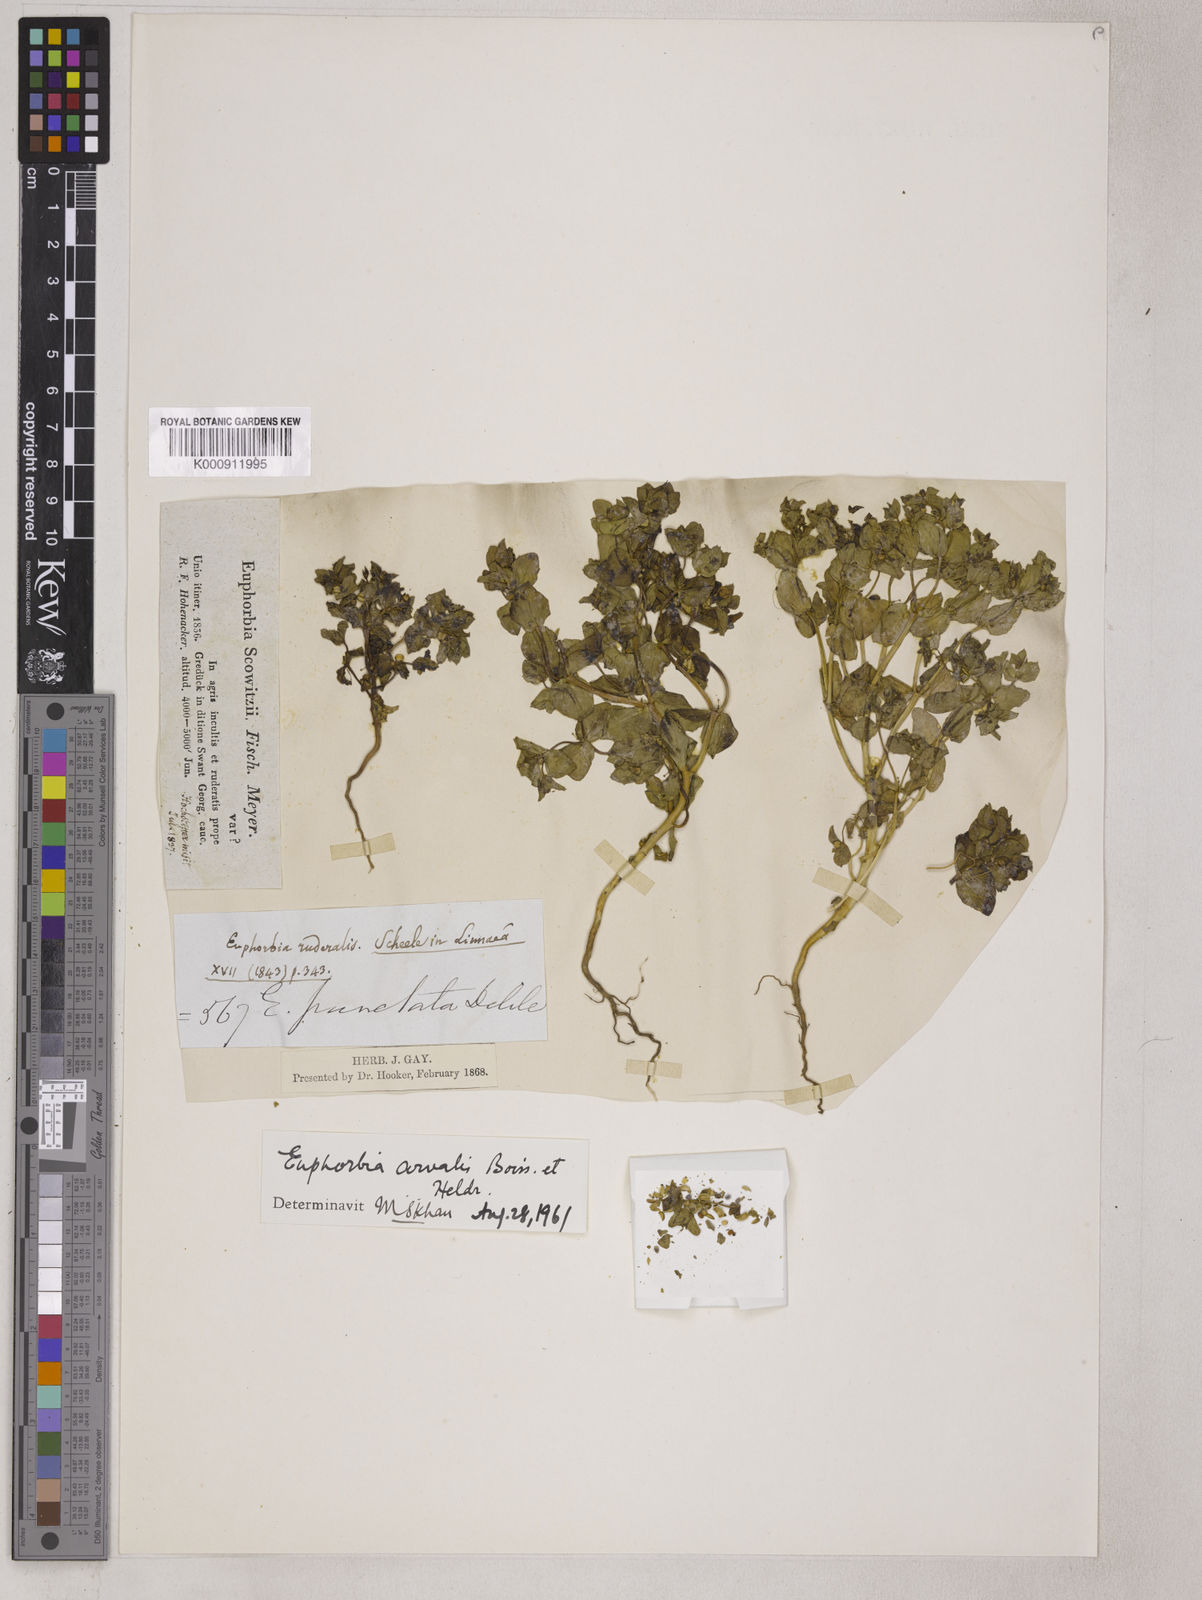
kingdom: Plantae
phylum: Tracheophyta
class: Magnoliopsida
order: Malpighiales
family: Euphorbiaceae
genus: Euphorbia
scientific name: Euphorbia arvalis
